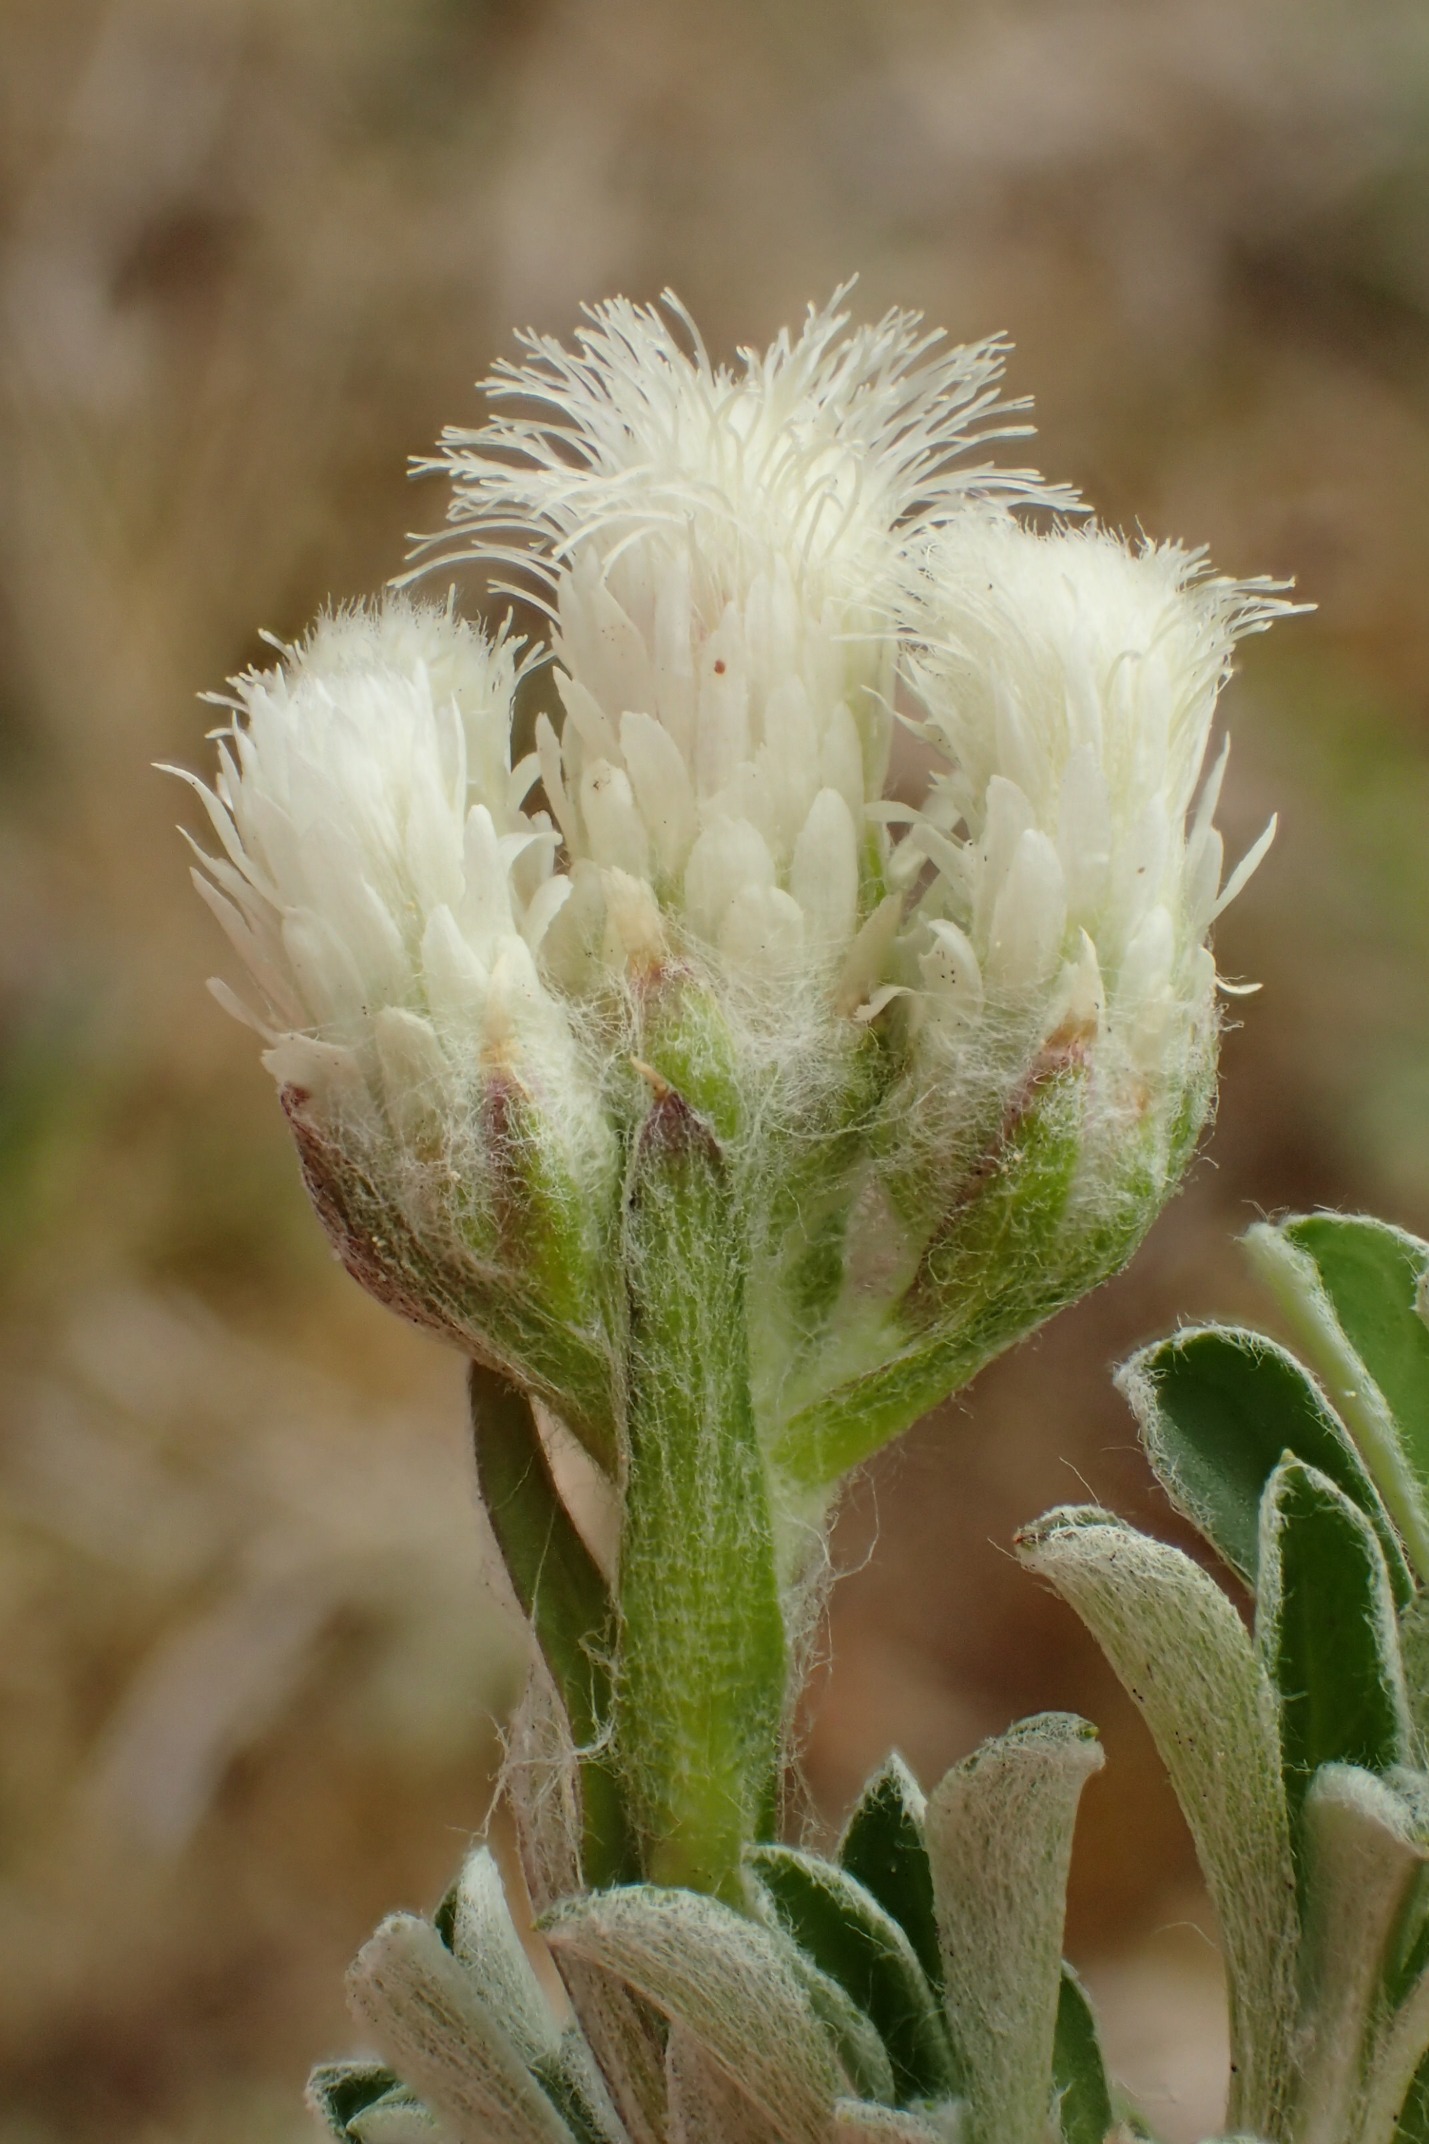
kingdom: Plantae
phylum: Tracheophyta
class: Magnoliopsida
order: Asterales
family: Asteraceae
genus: Antennaria
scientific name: Antennaria dioica
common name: Kattefod
